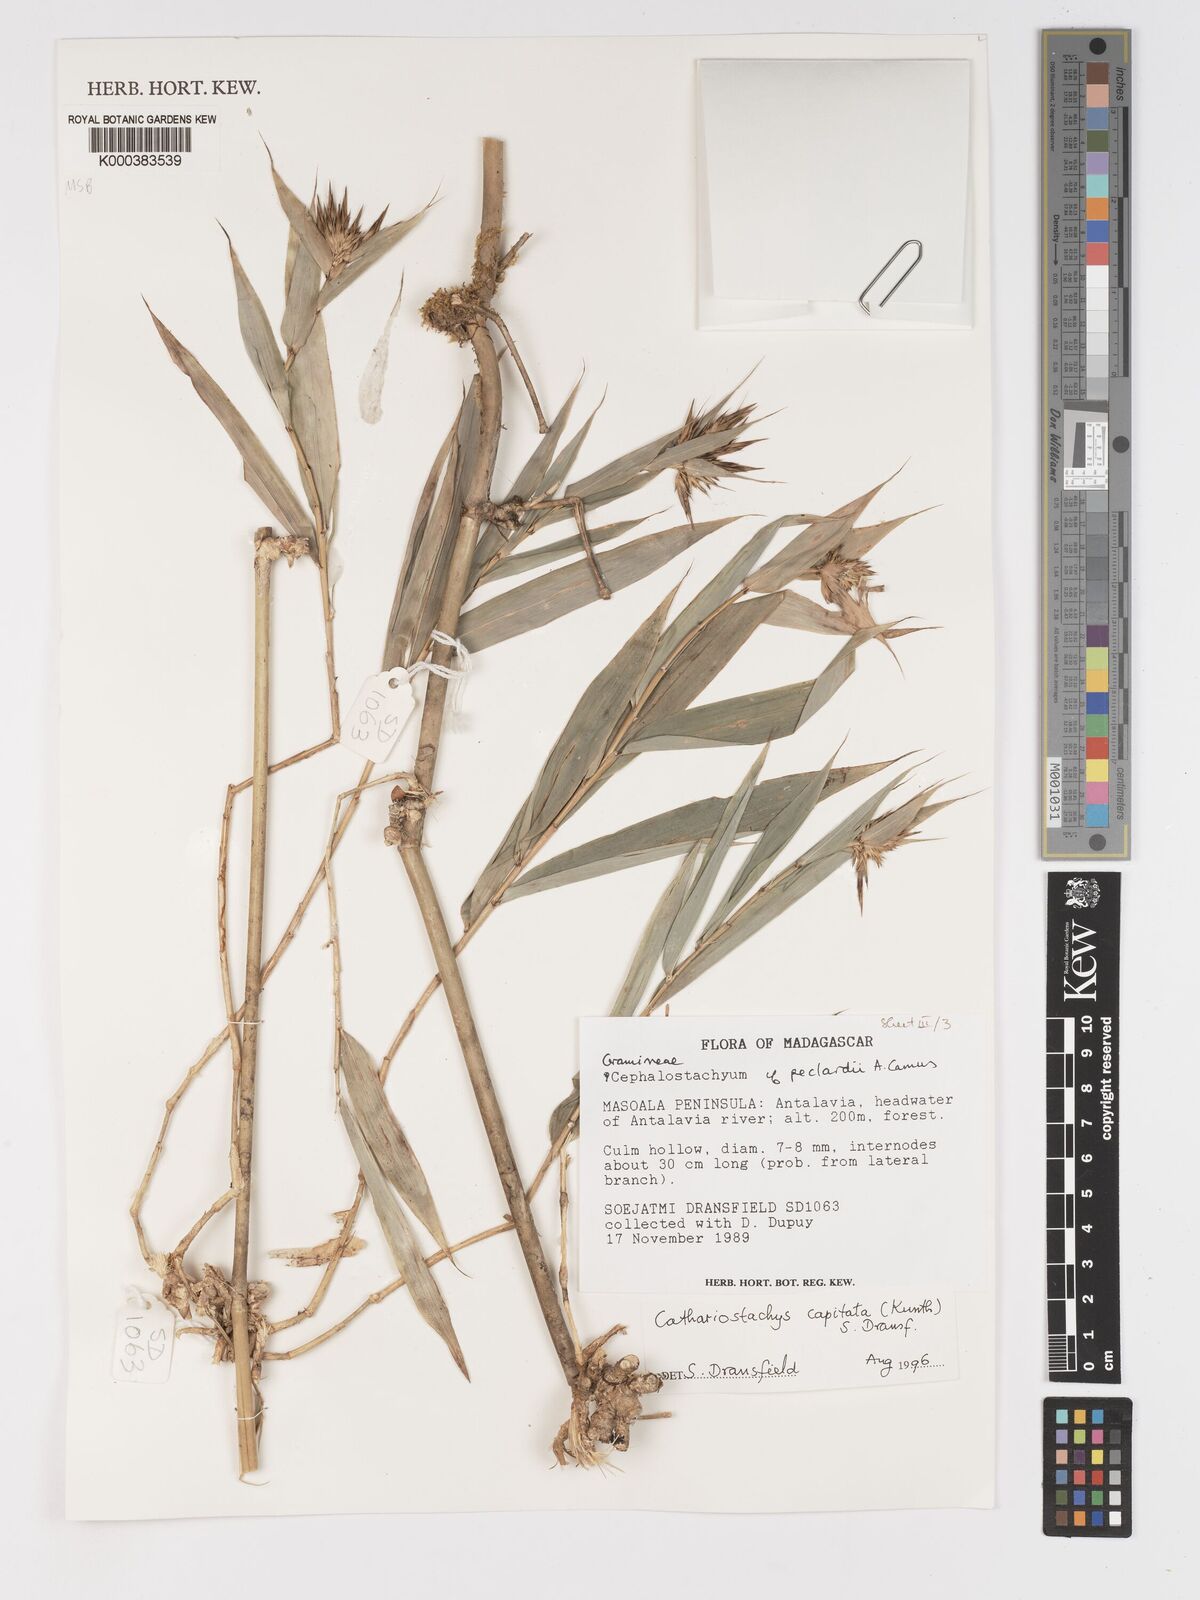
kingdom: Plantae
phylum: Tracheophyta
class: Liliopsida
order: Poales
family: Poaceae
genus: Cathariostachys
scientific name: Cathariostachys capitata
